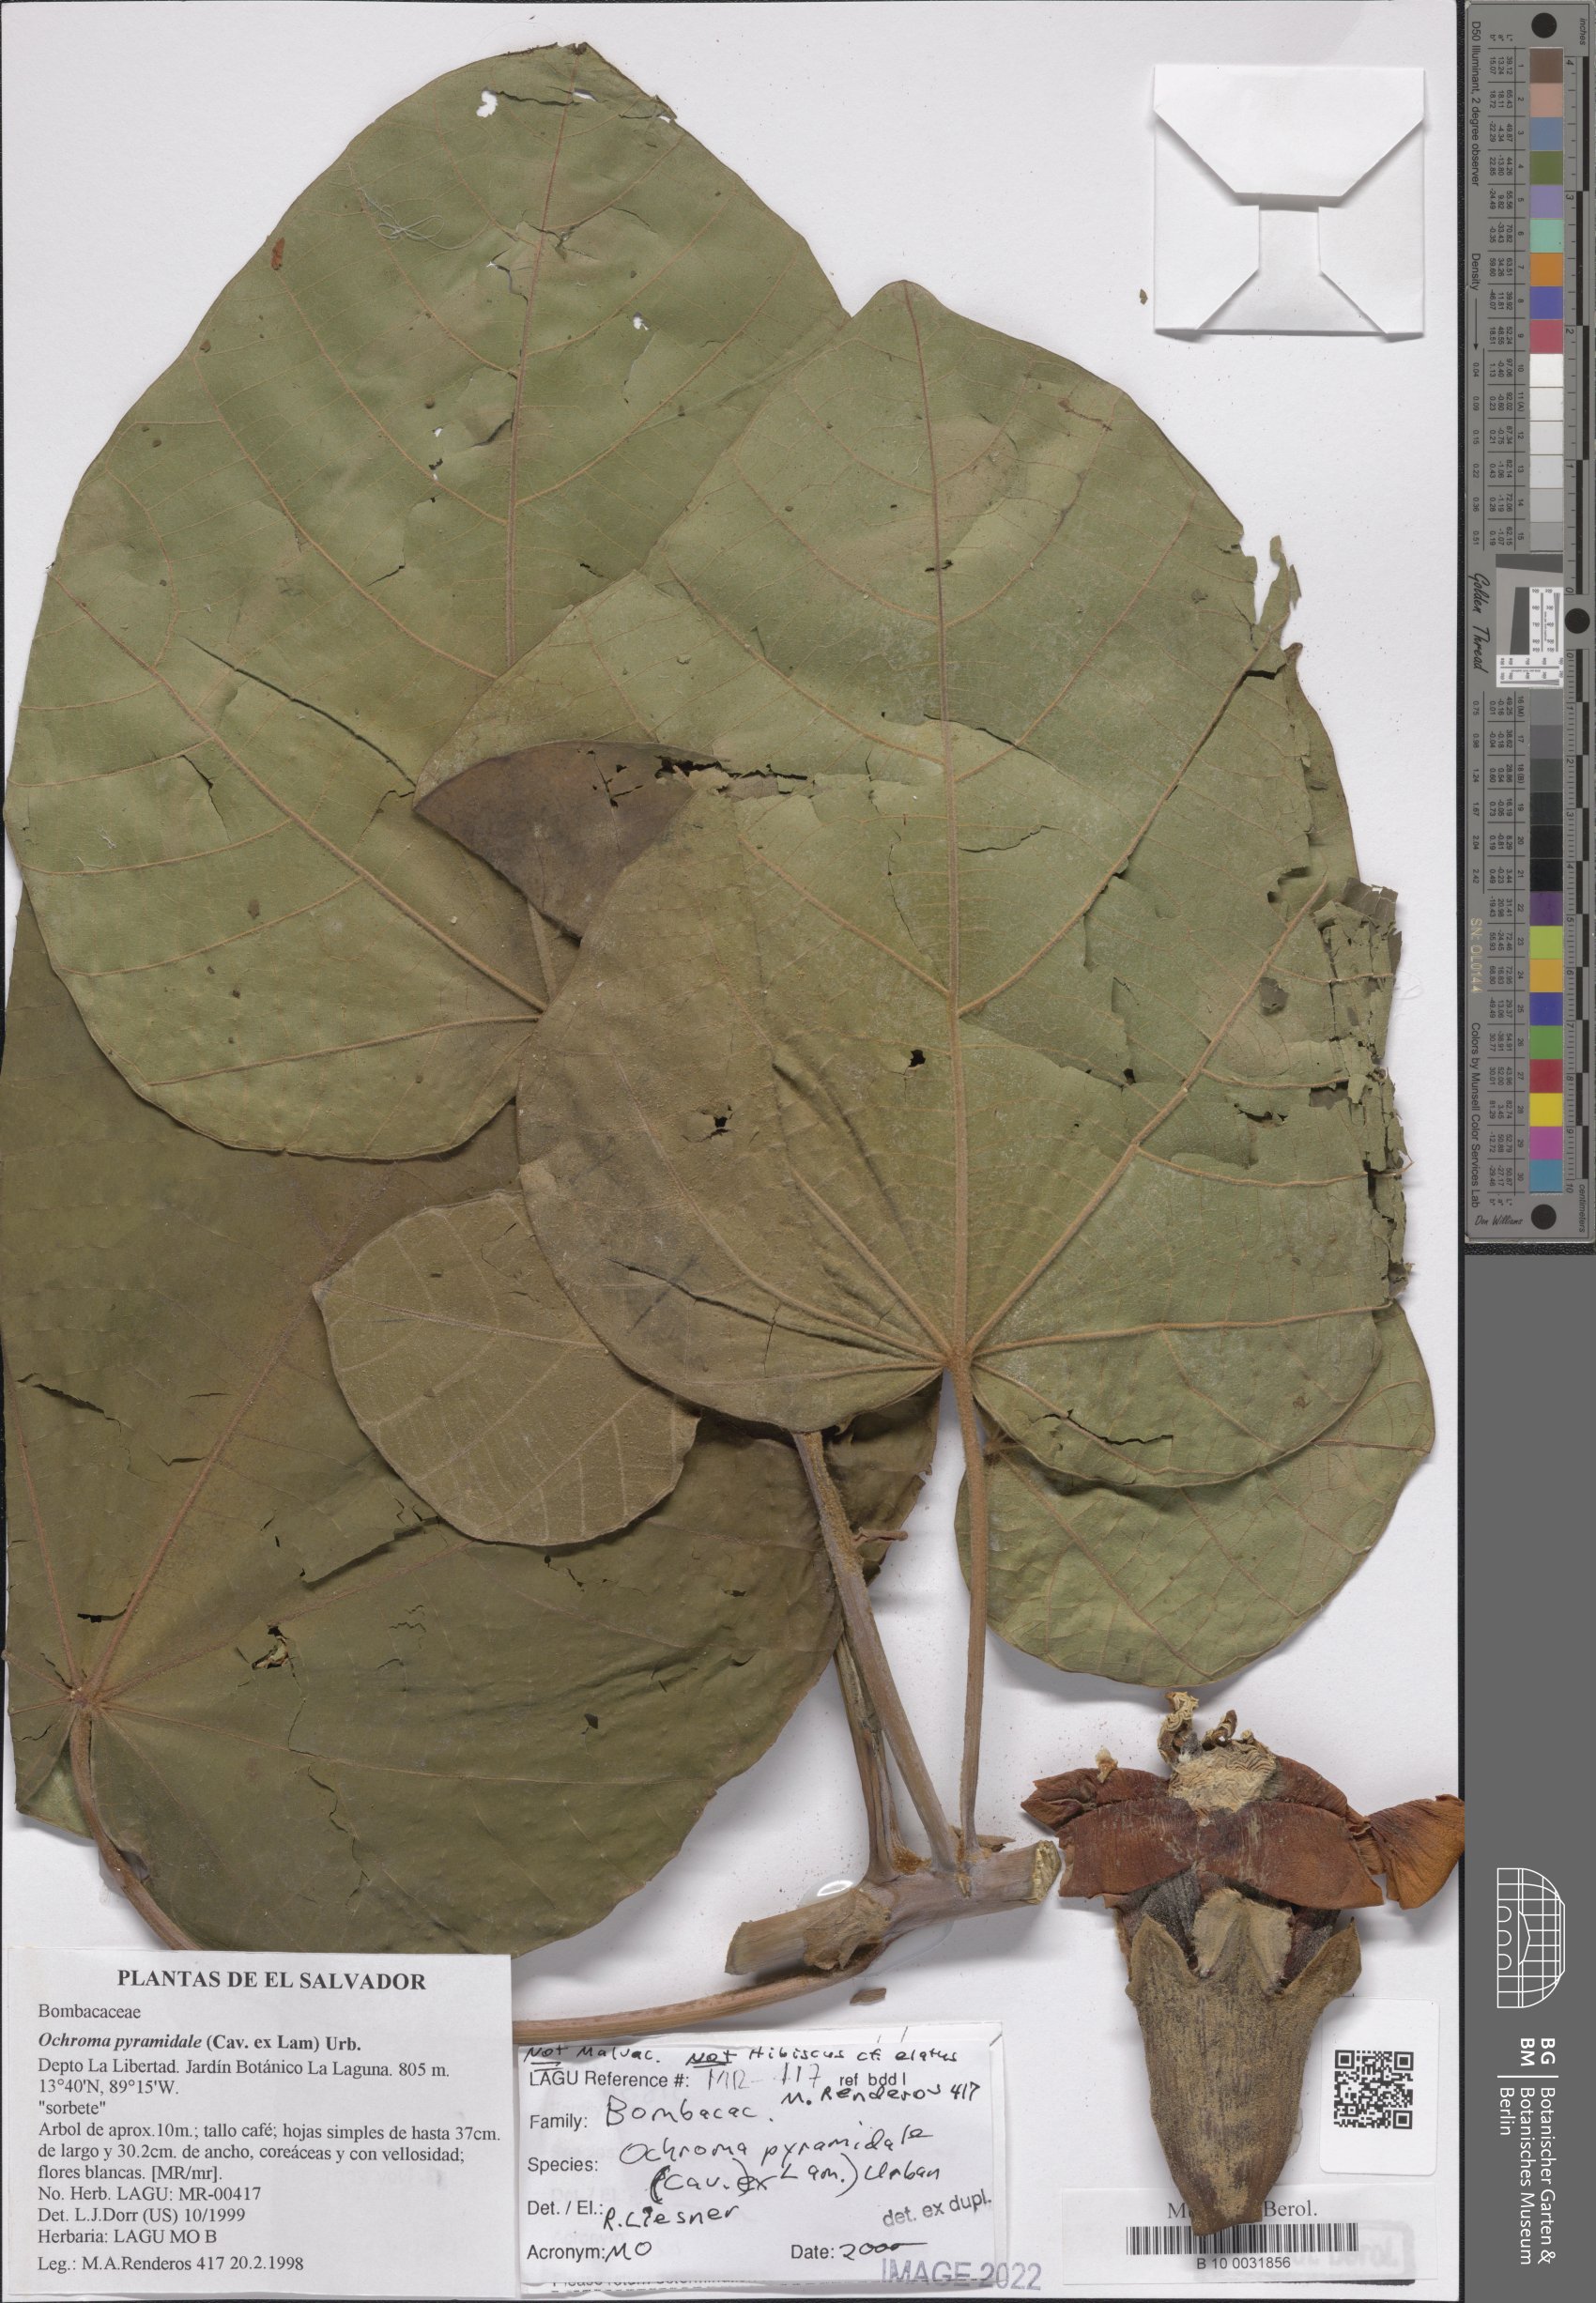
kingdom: Plantae
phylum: Tracheophyta
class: Magnoliopsida
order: Malvales
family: Malvaceae
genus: Ochroma
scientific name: Ochroma pyramidale
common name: Balsa
